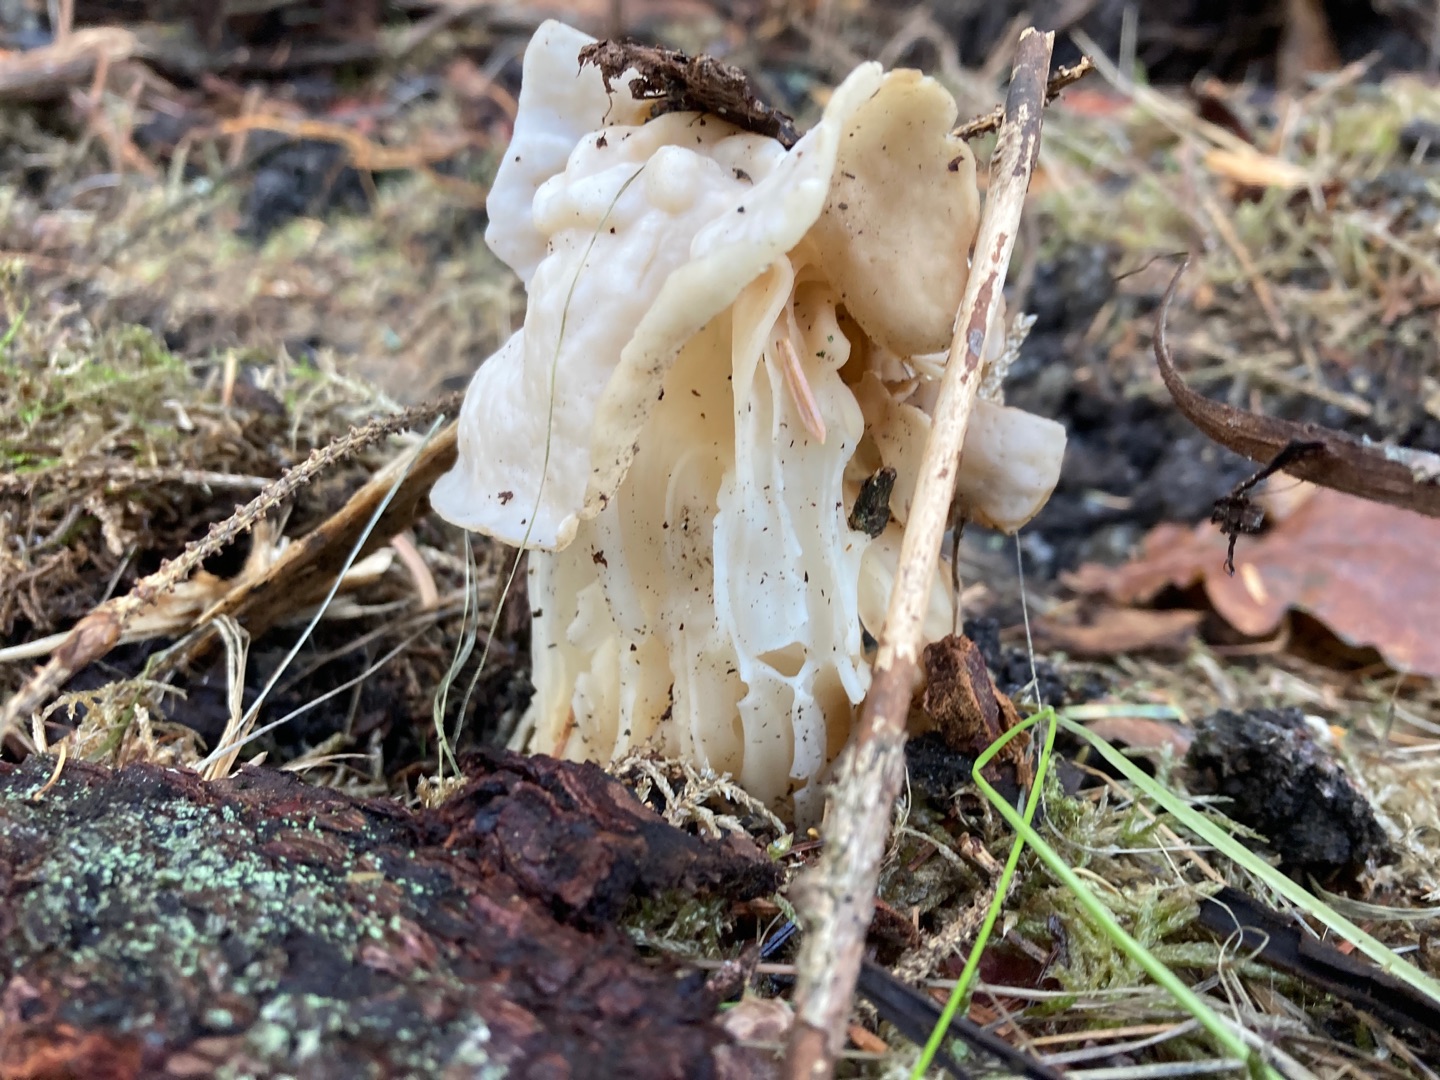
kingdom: Fungi
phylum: Ascomycota
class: Pezizomycetes
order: Pezizales
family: Helvellaceae
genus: Helvella
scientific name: Helvella crispa
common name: Kruset foldhat
